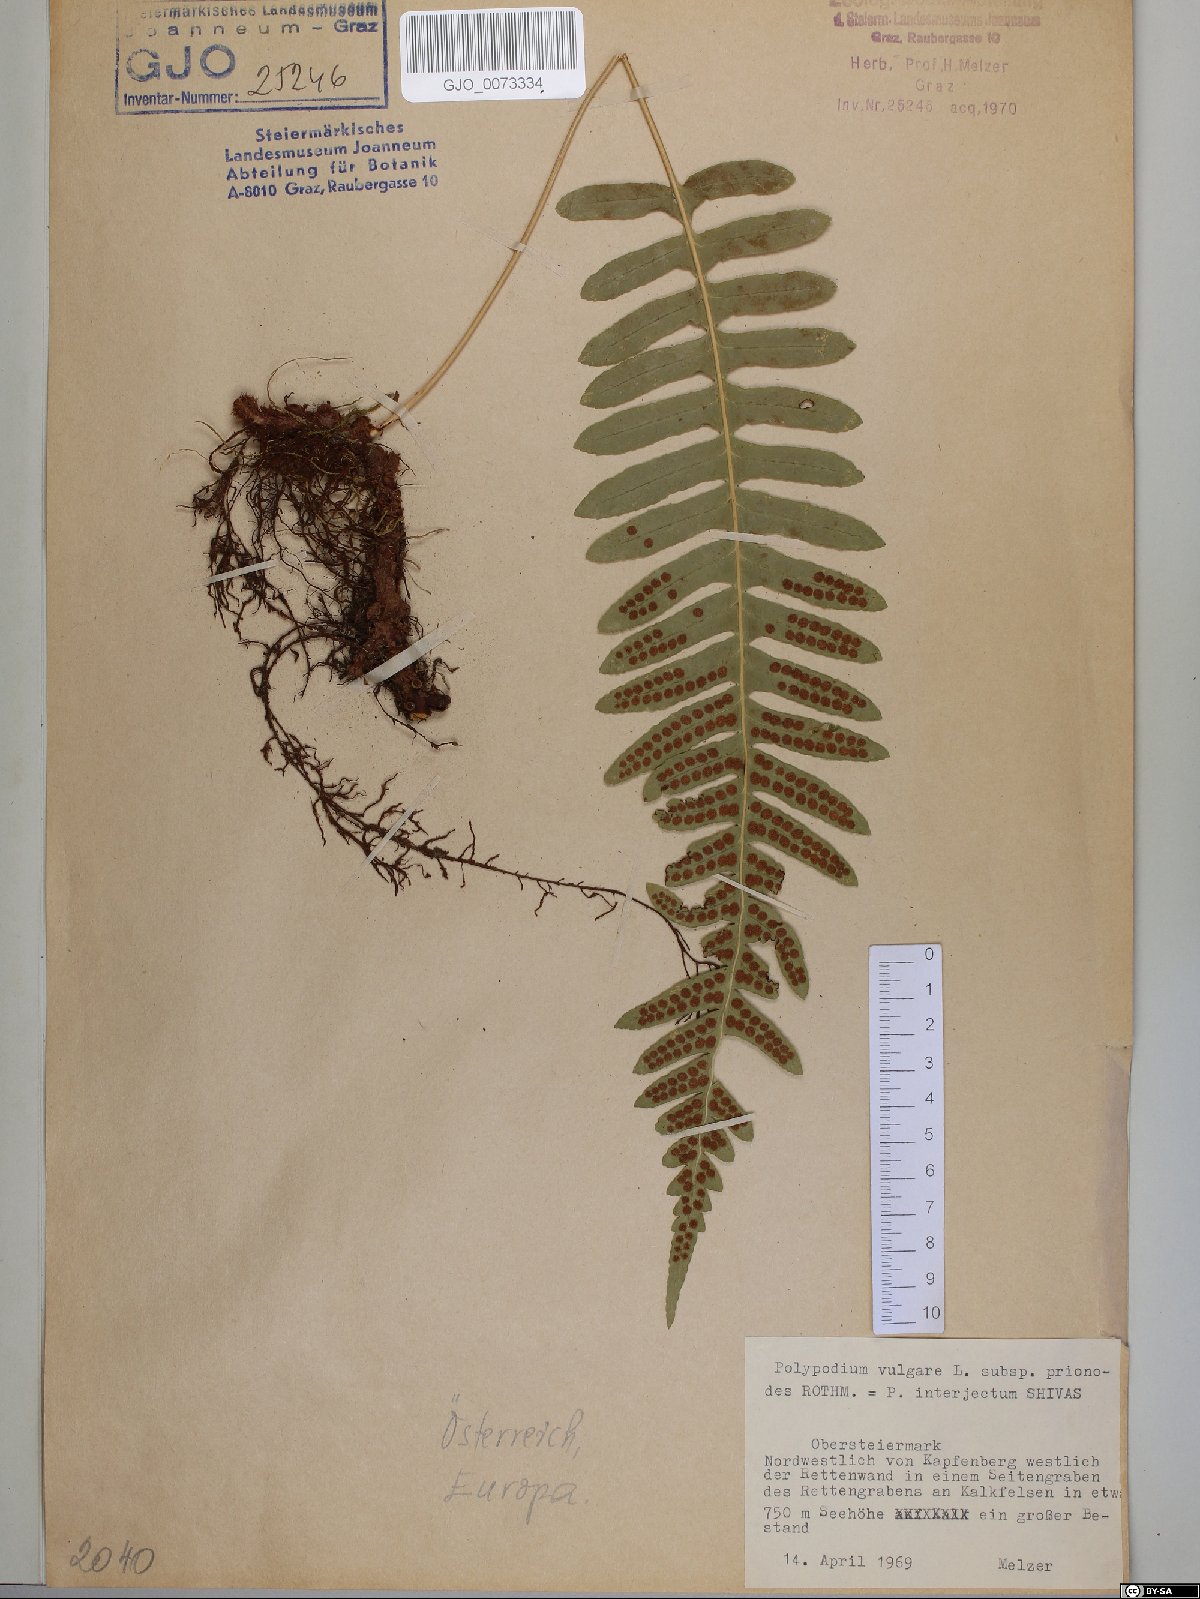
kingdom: Plantae
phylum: Tracheophyta
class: Polypodiopsida
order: Polypodiales
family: Polypodiaceae
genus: Polypodium
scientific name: Polypodium interjectum
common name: Intermediate polypody
